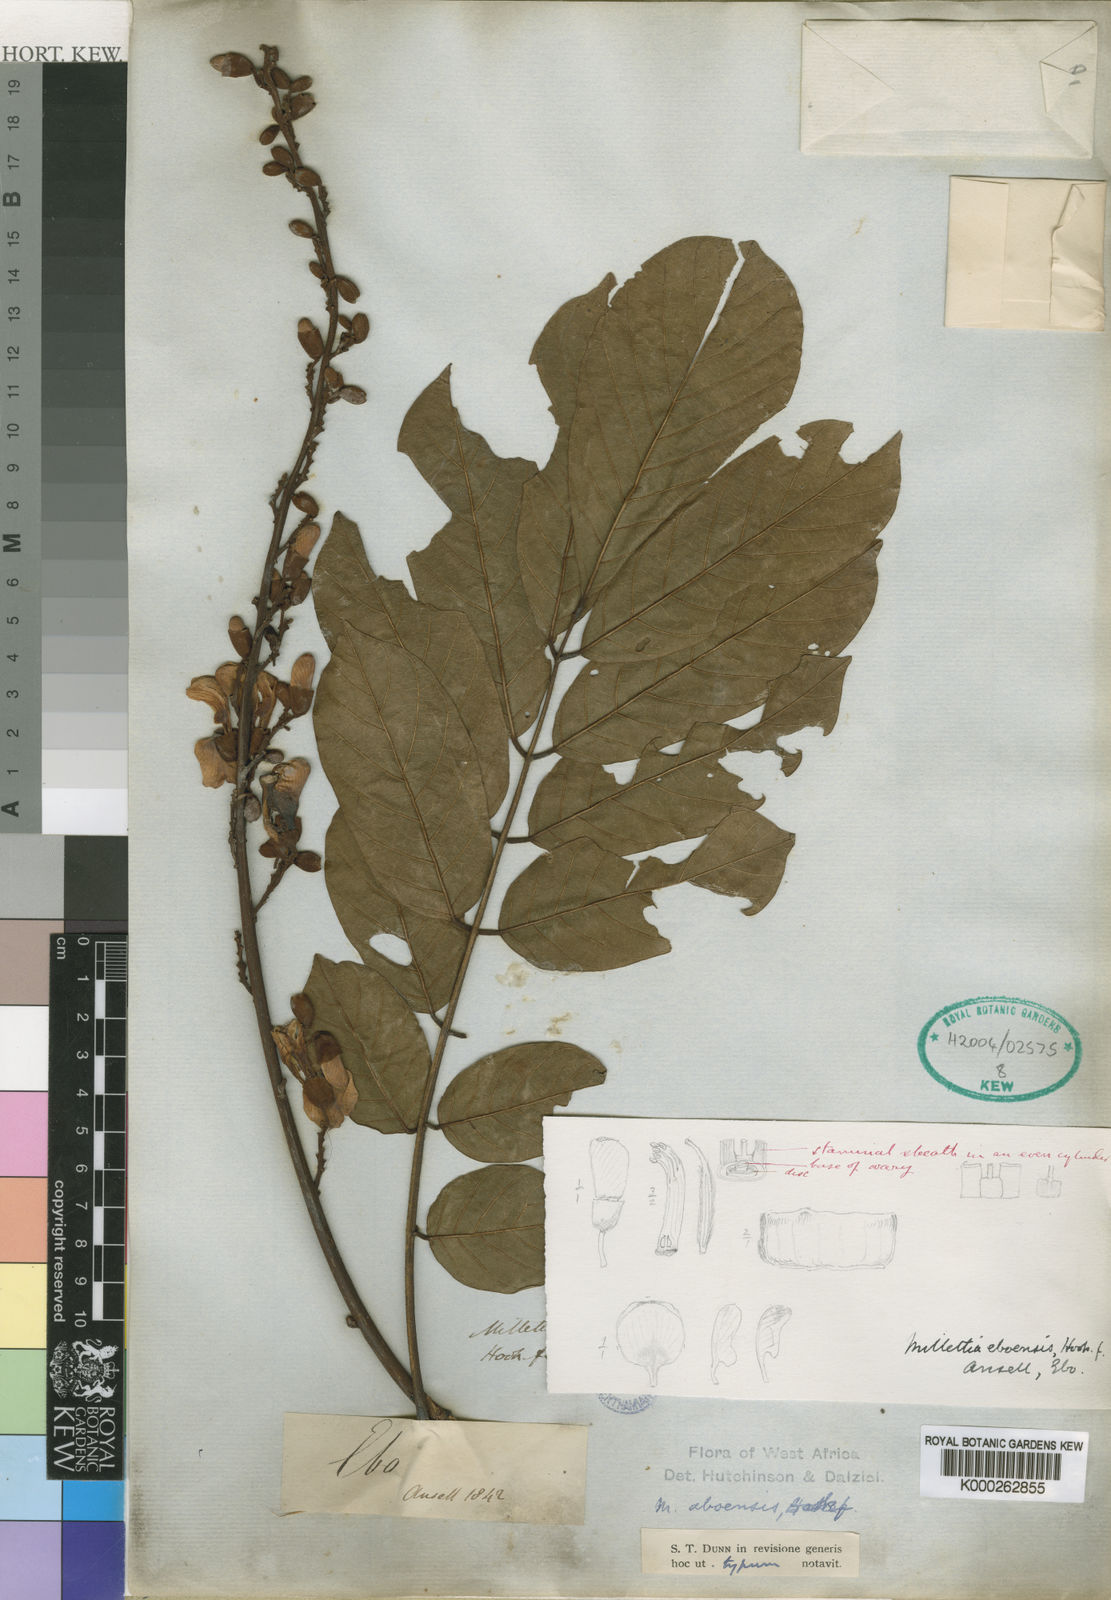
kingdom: Plantae
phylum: Tracheophyta
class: Magnoliopsida
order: Fabales
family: Fabaceae
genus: Millettia
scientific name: Millettia aboensis
